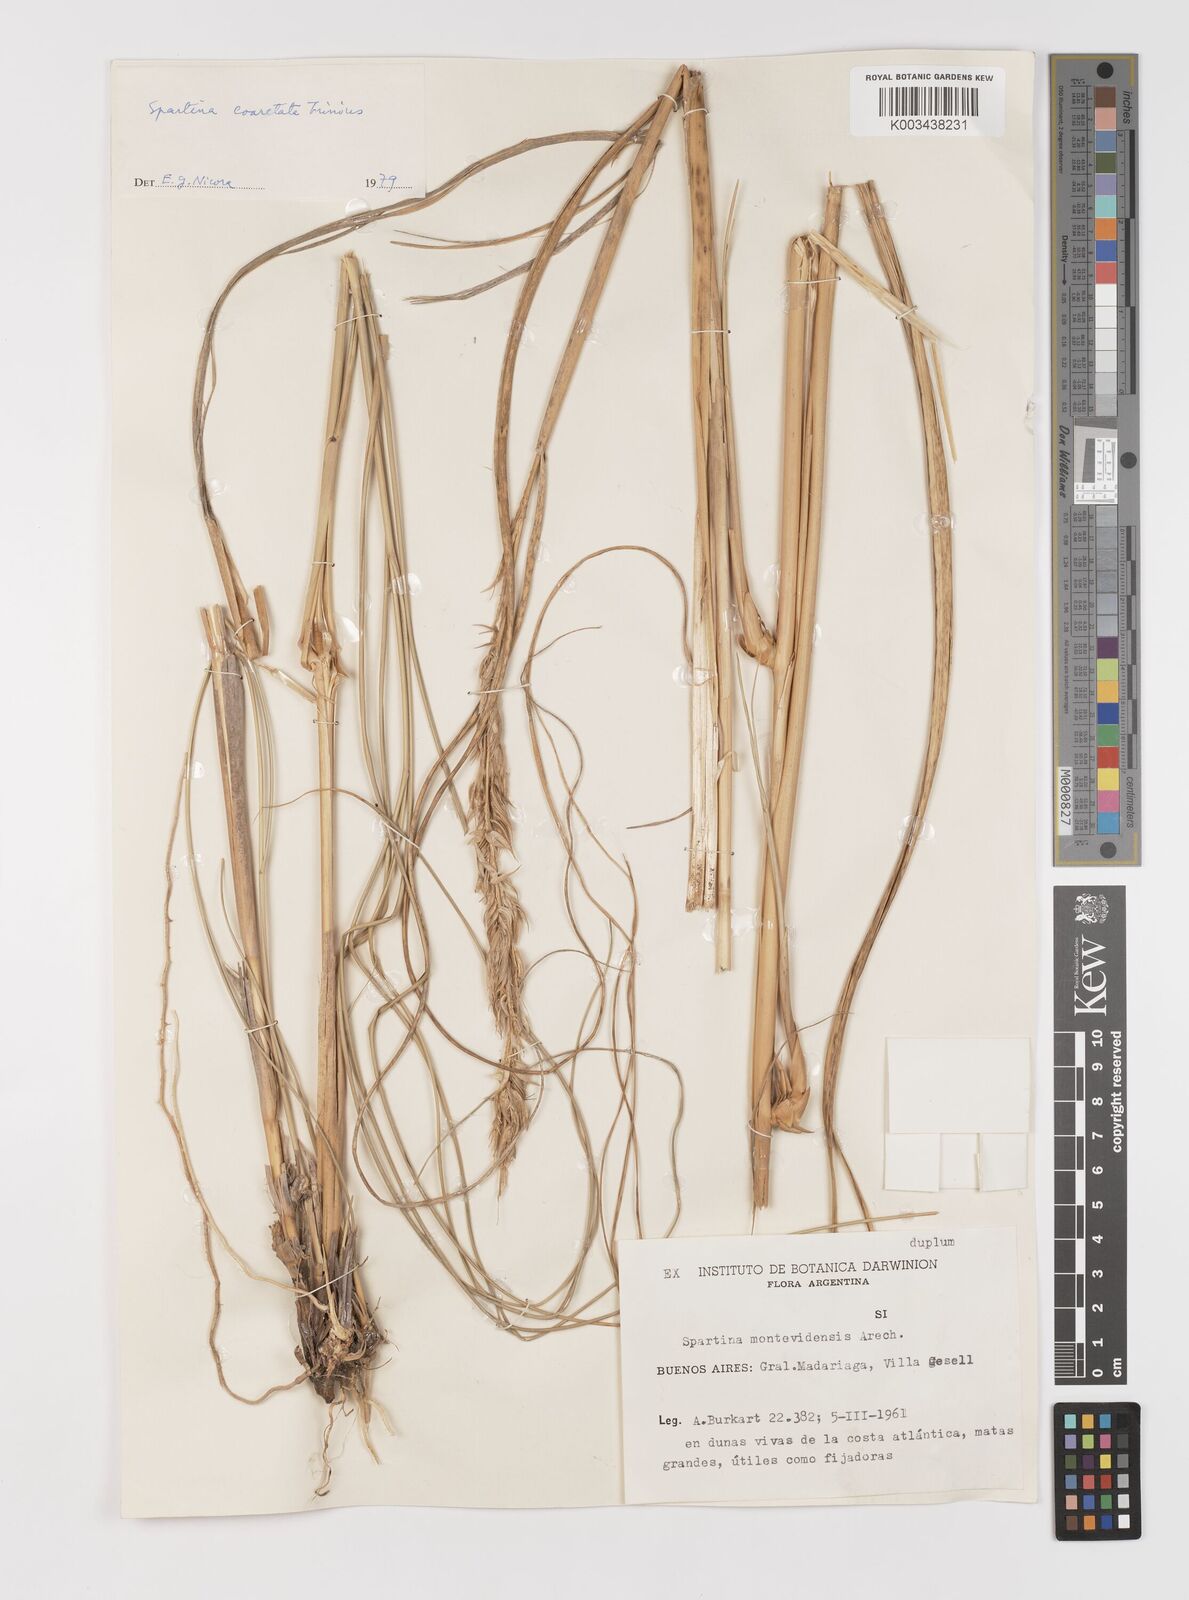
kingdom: Plantae
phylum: Tracheophyta
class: Liliopsida
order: Poales
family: Poaceae
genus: Sporobolus
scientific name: Sporobolus coarctatus
